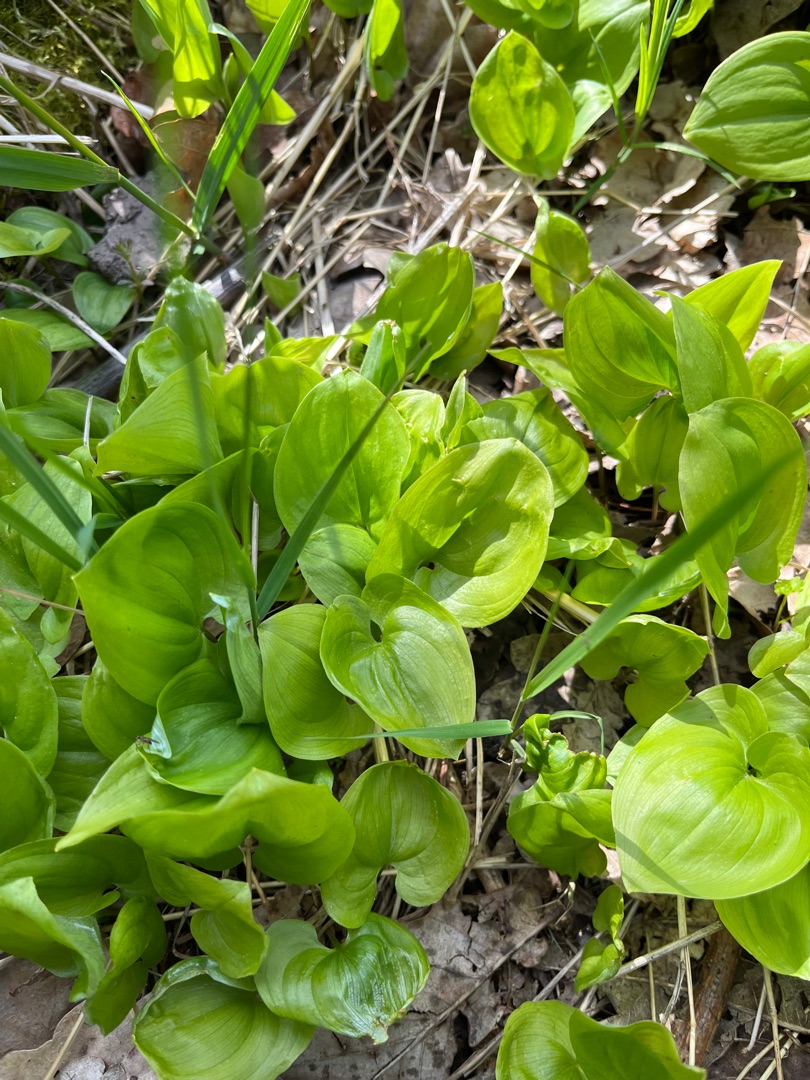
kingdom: Plantae
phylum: Tracheophyta
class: Liliopsida
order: Asparagales
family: Asparagaceae
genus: Maianthemum
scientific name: Maianthemum bifolium
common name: Majblomst
